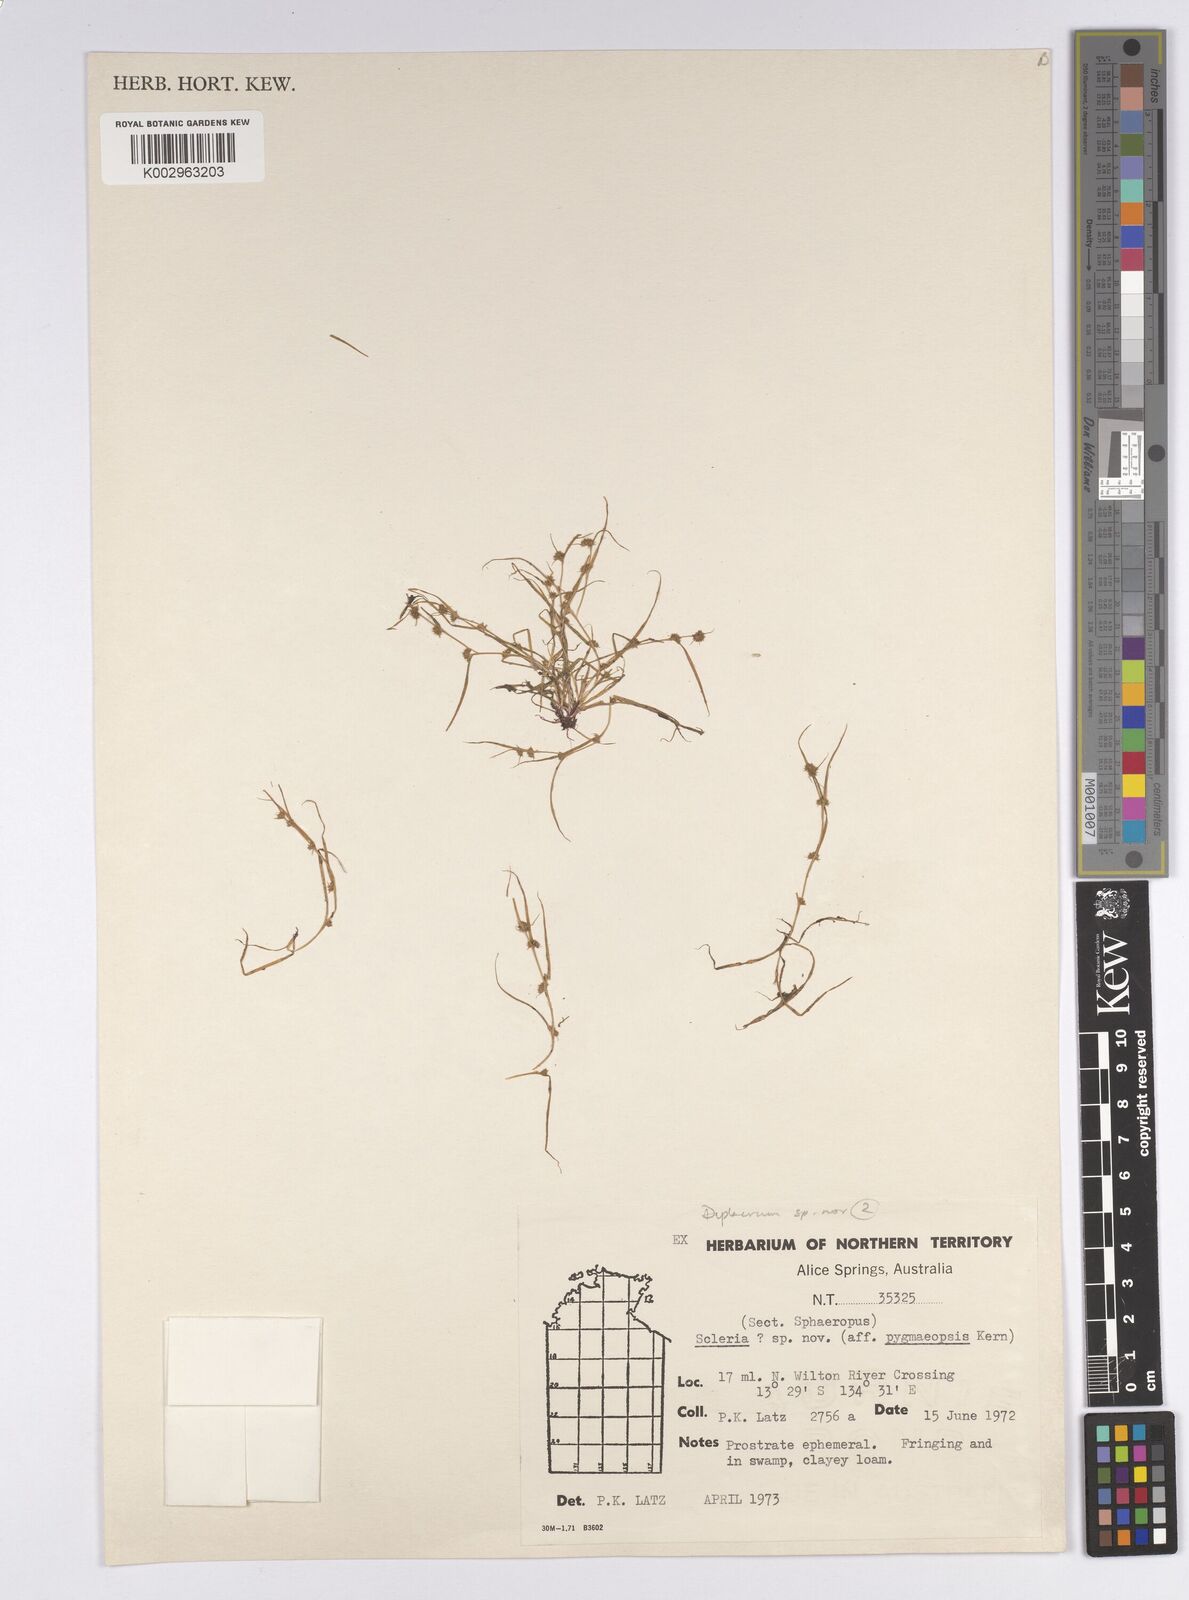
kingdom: Plantae
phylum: Tracheophyta
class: Liliopsida
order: Poales
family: Cyperaceae
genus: Diplacrum
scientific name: Diplacrum
